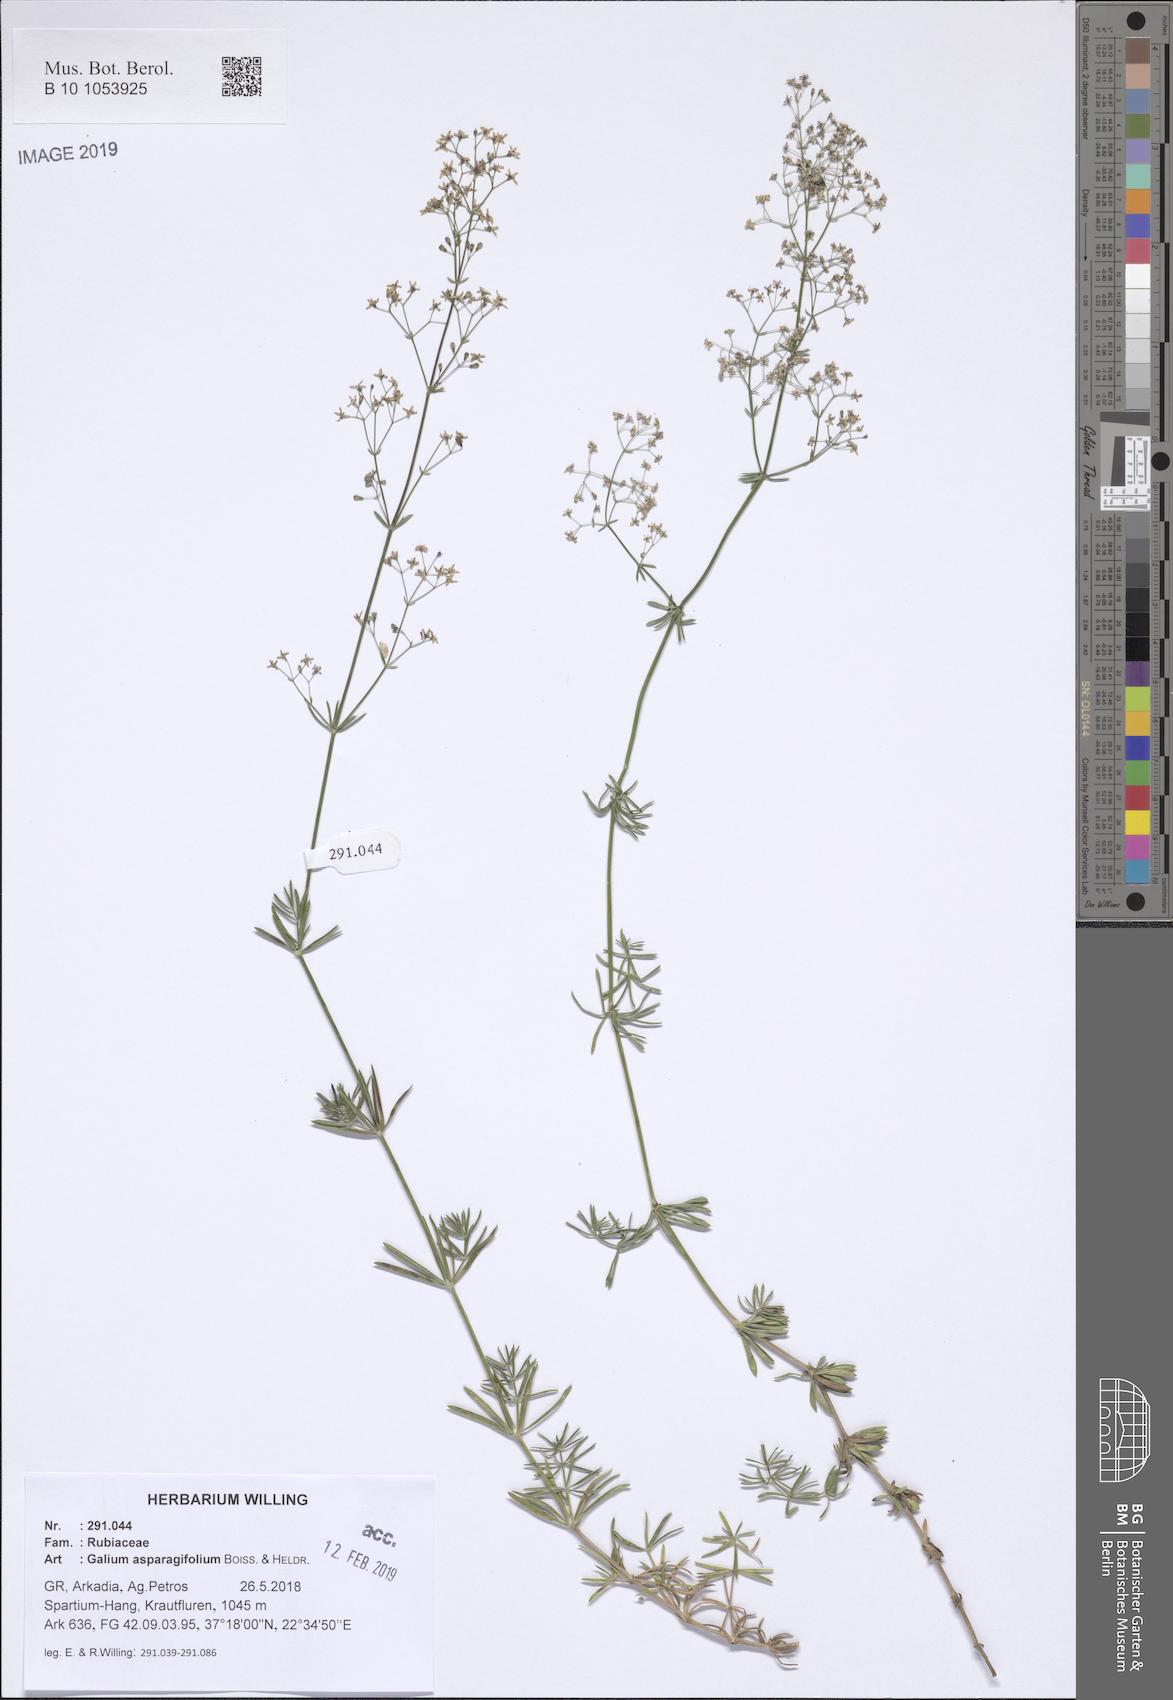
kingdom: Plantae
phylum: Tracheophyta
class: Magnoliopsida
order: Gentianales
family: Rubiaceae
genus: Galium
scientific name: Galium asparagifolium
